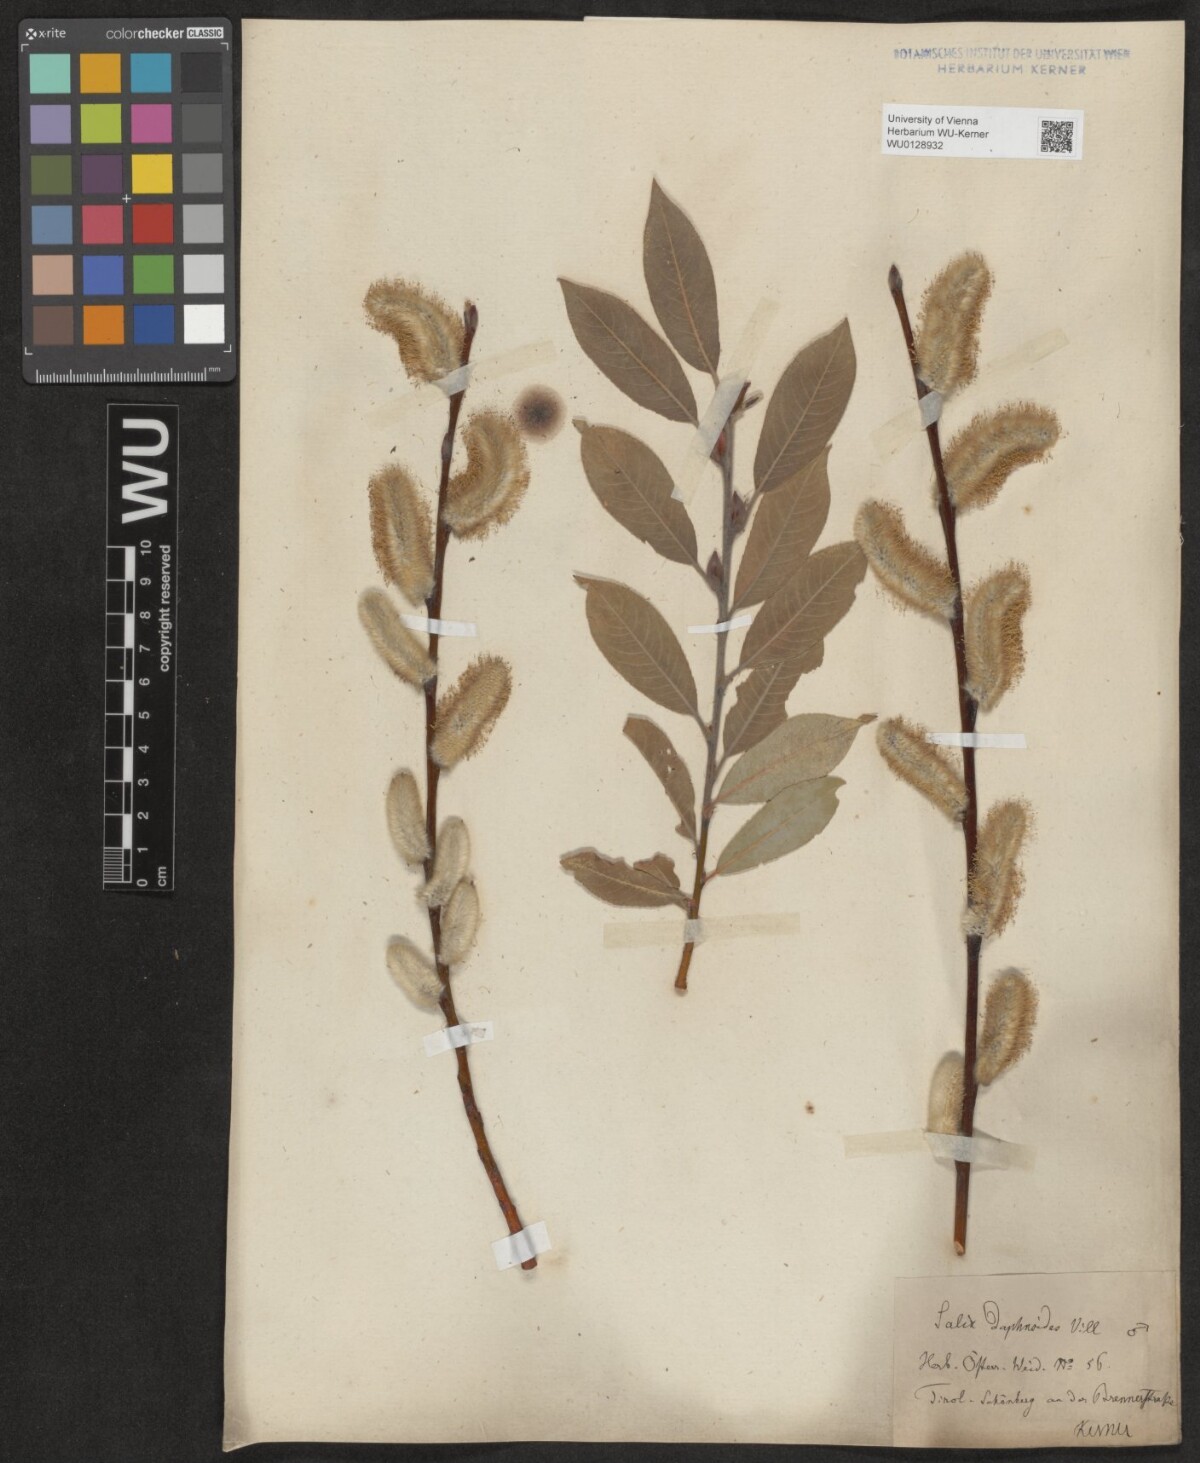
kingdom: Plantae
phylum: Tracheophyta
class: Magnoliopsida
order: Malpighiales
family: Salicaceae
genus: Salix
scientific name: Salix daphnoides
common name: European violet-willow
